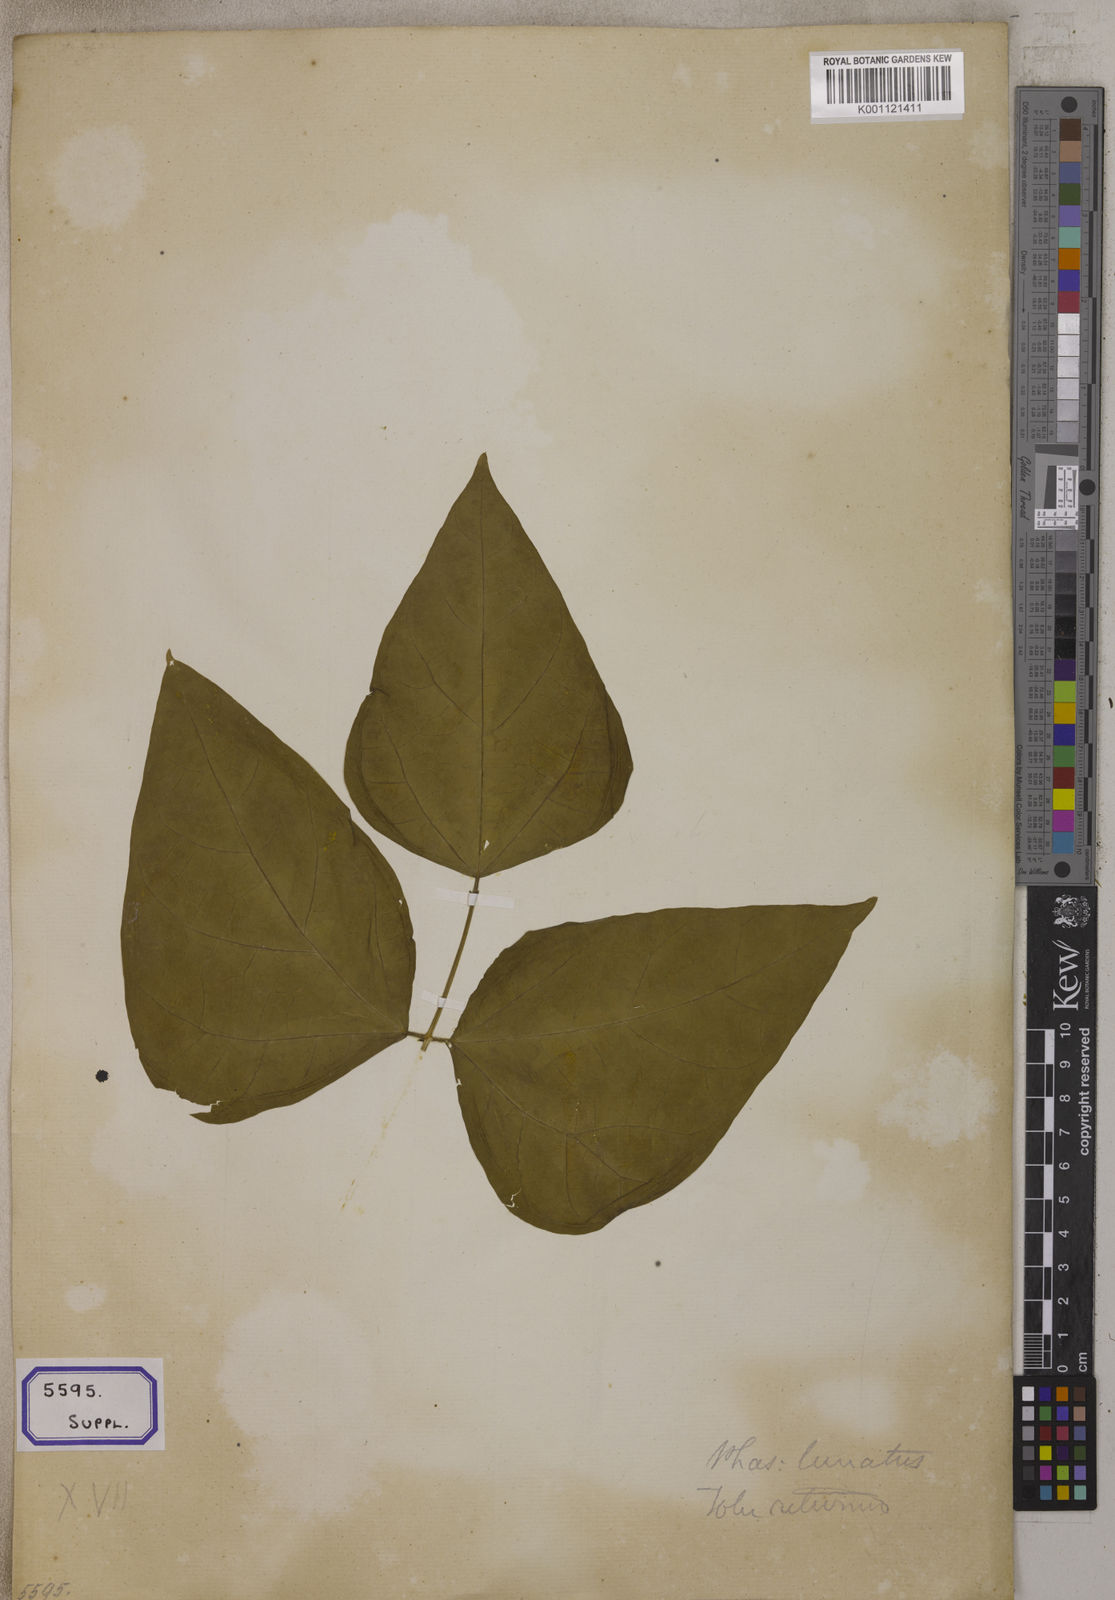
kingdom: Plantae
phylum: Tracheophyta
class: Magnoliopsida
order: Fabales
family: Fabaceae
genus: Phaseolus
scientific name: Phaseolus vulgaris
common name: Bean
